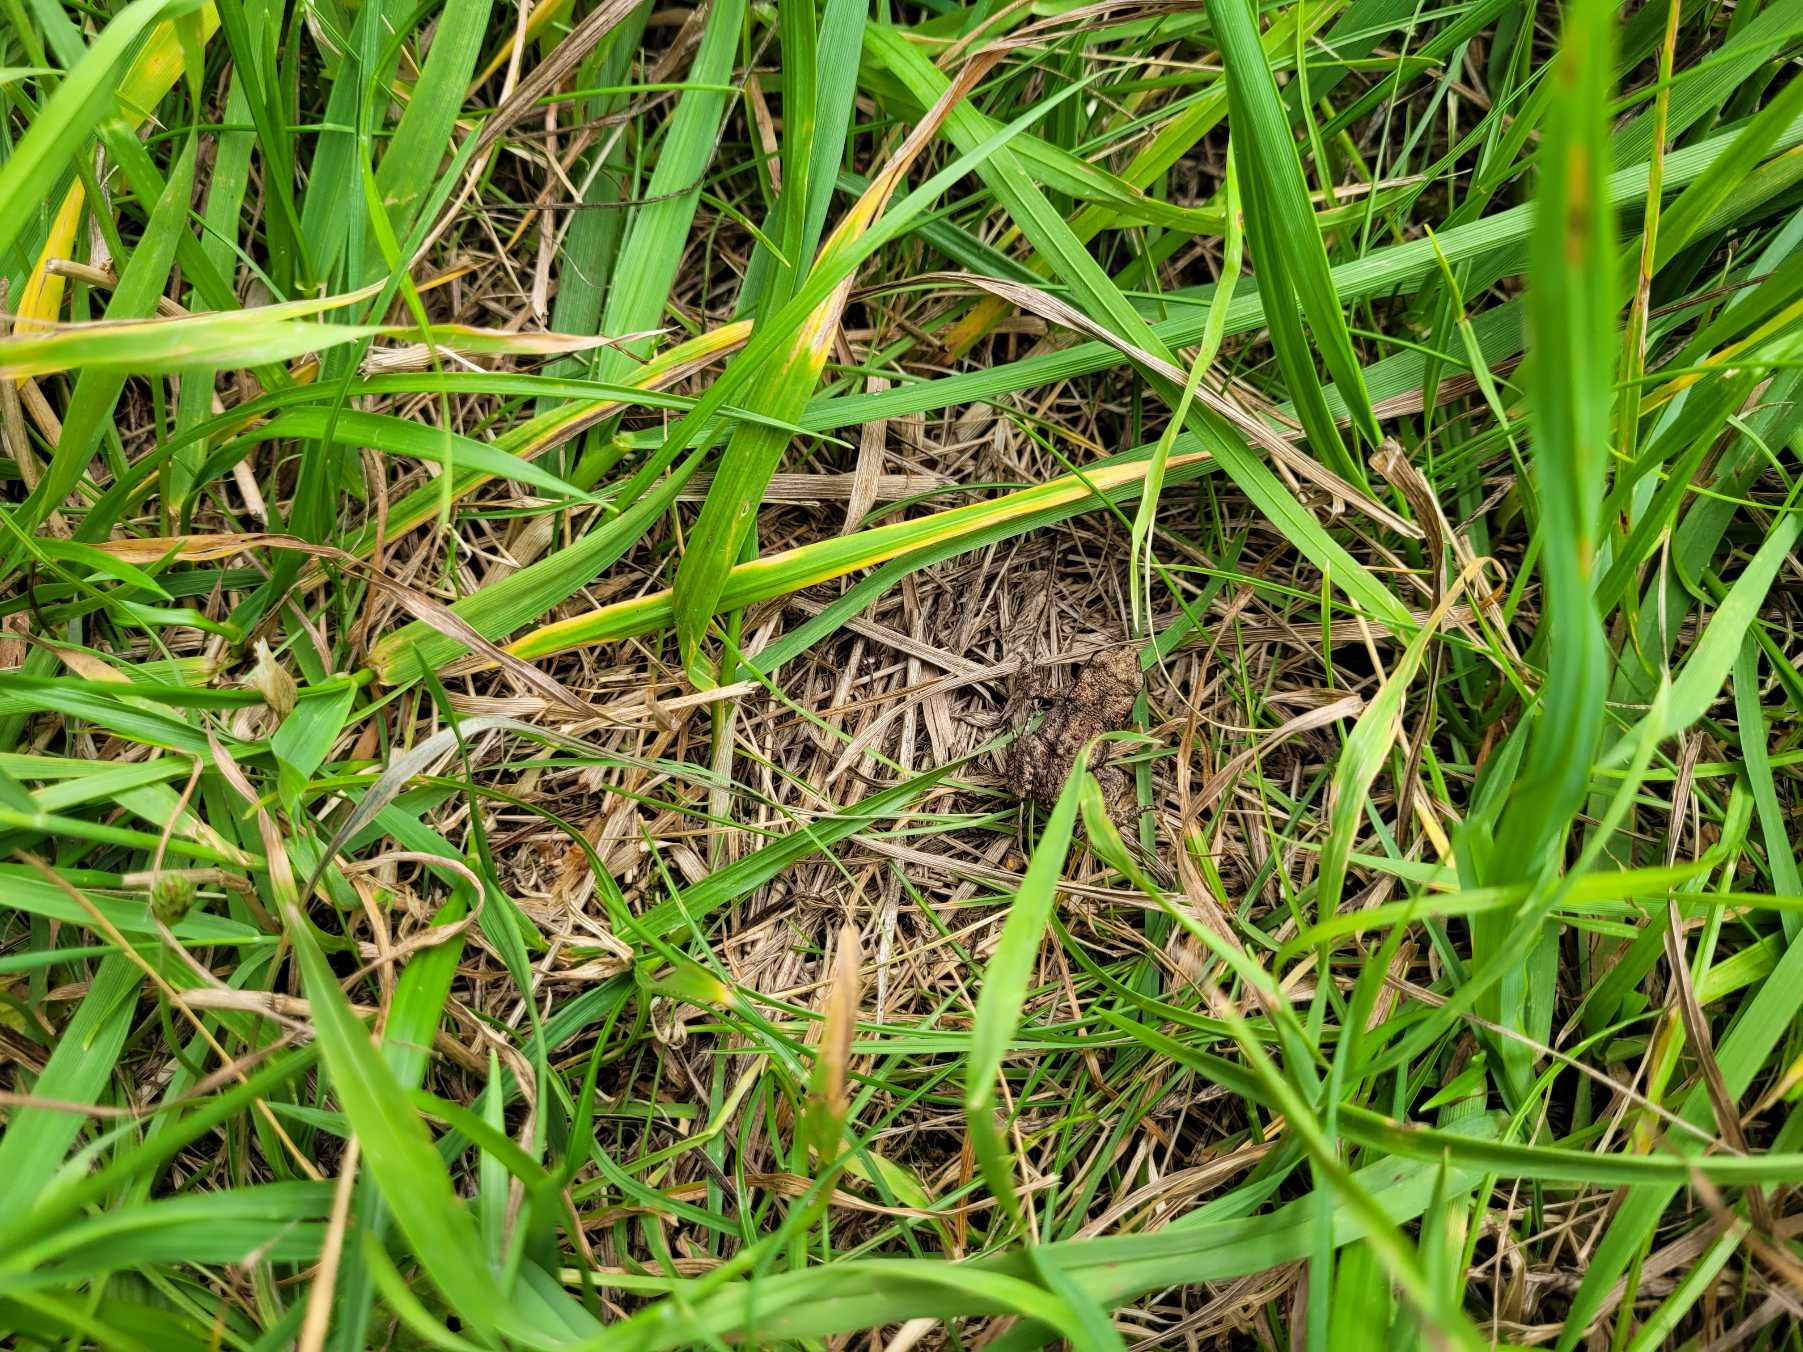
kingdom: Animalia
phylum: Chordata
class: Amphibia
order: Anura
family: Bufonidae
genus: Bufo
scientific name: Bufo bufo
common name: Skrubtudse
